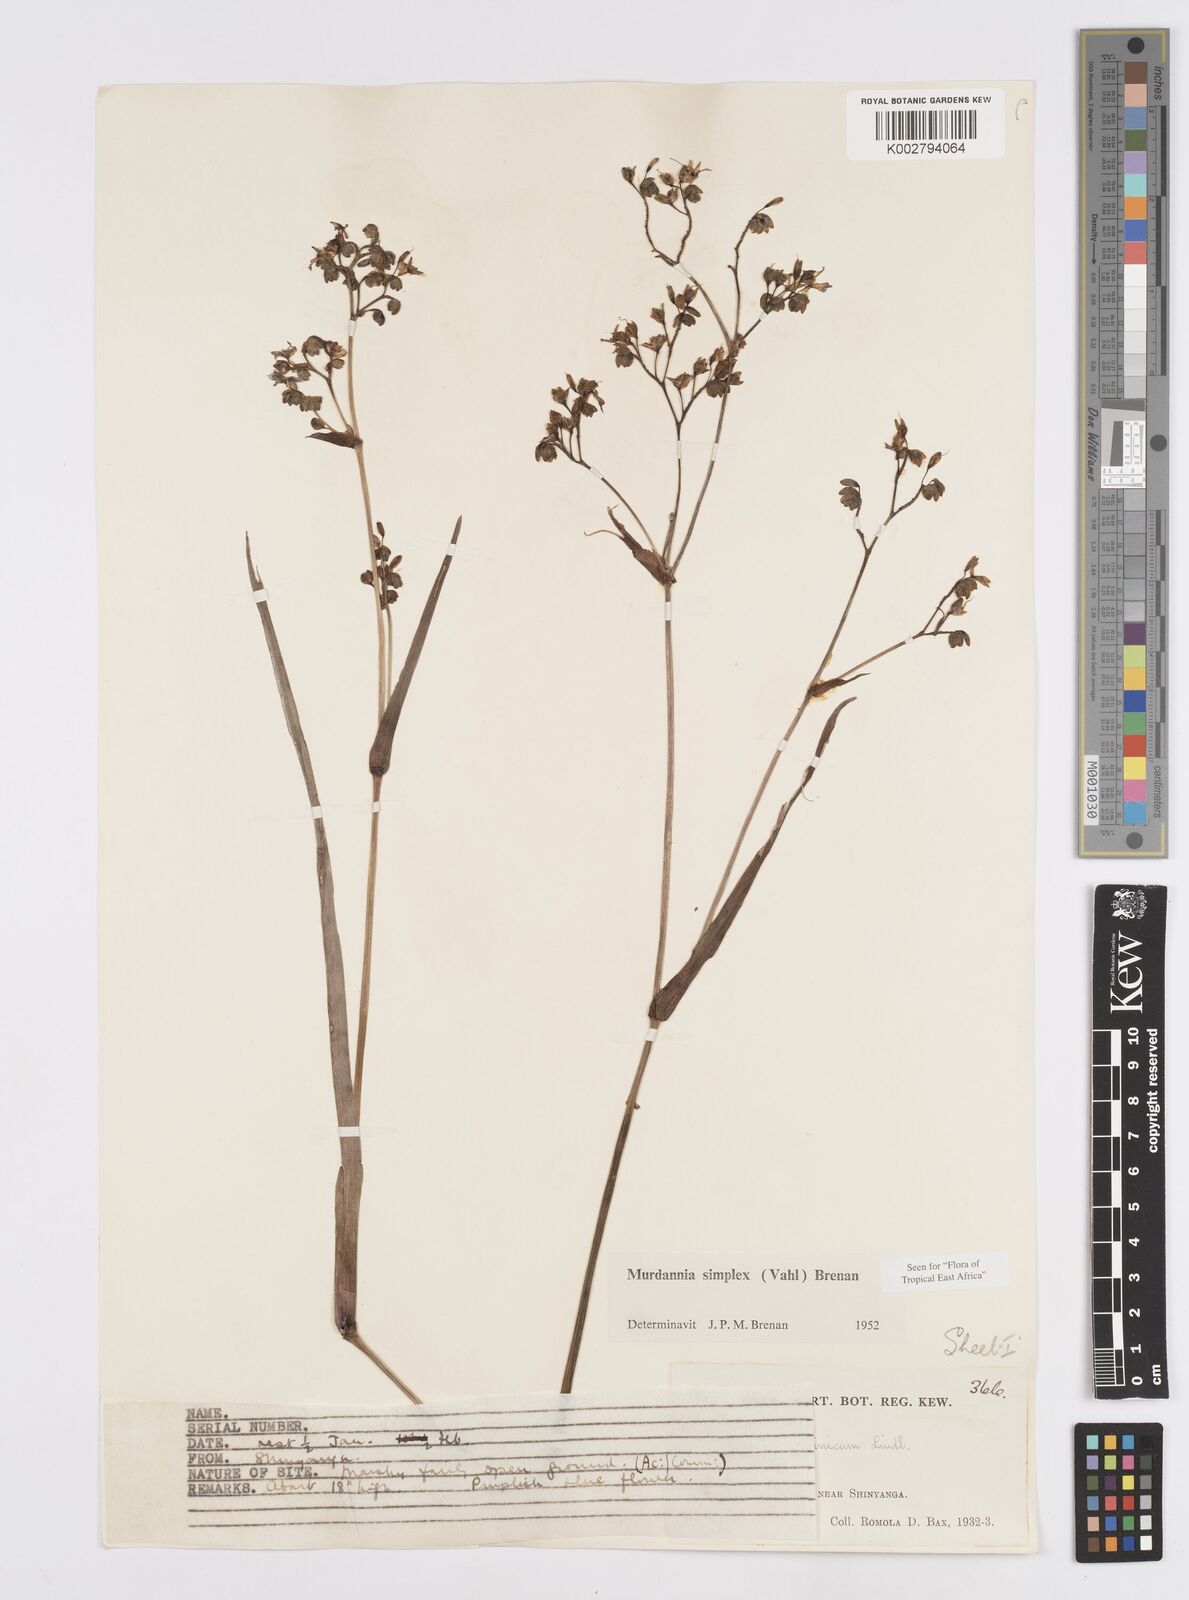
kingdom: Plantae
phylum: Tracheophyta
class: Liliopsida
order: Commelinales
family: Commelinaceae
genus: Murdannia
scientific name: Murdannia simplex
